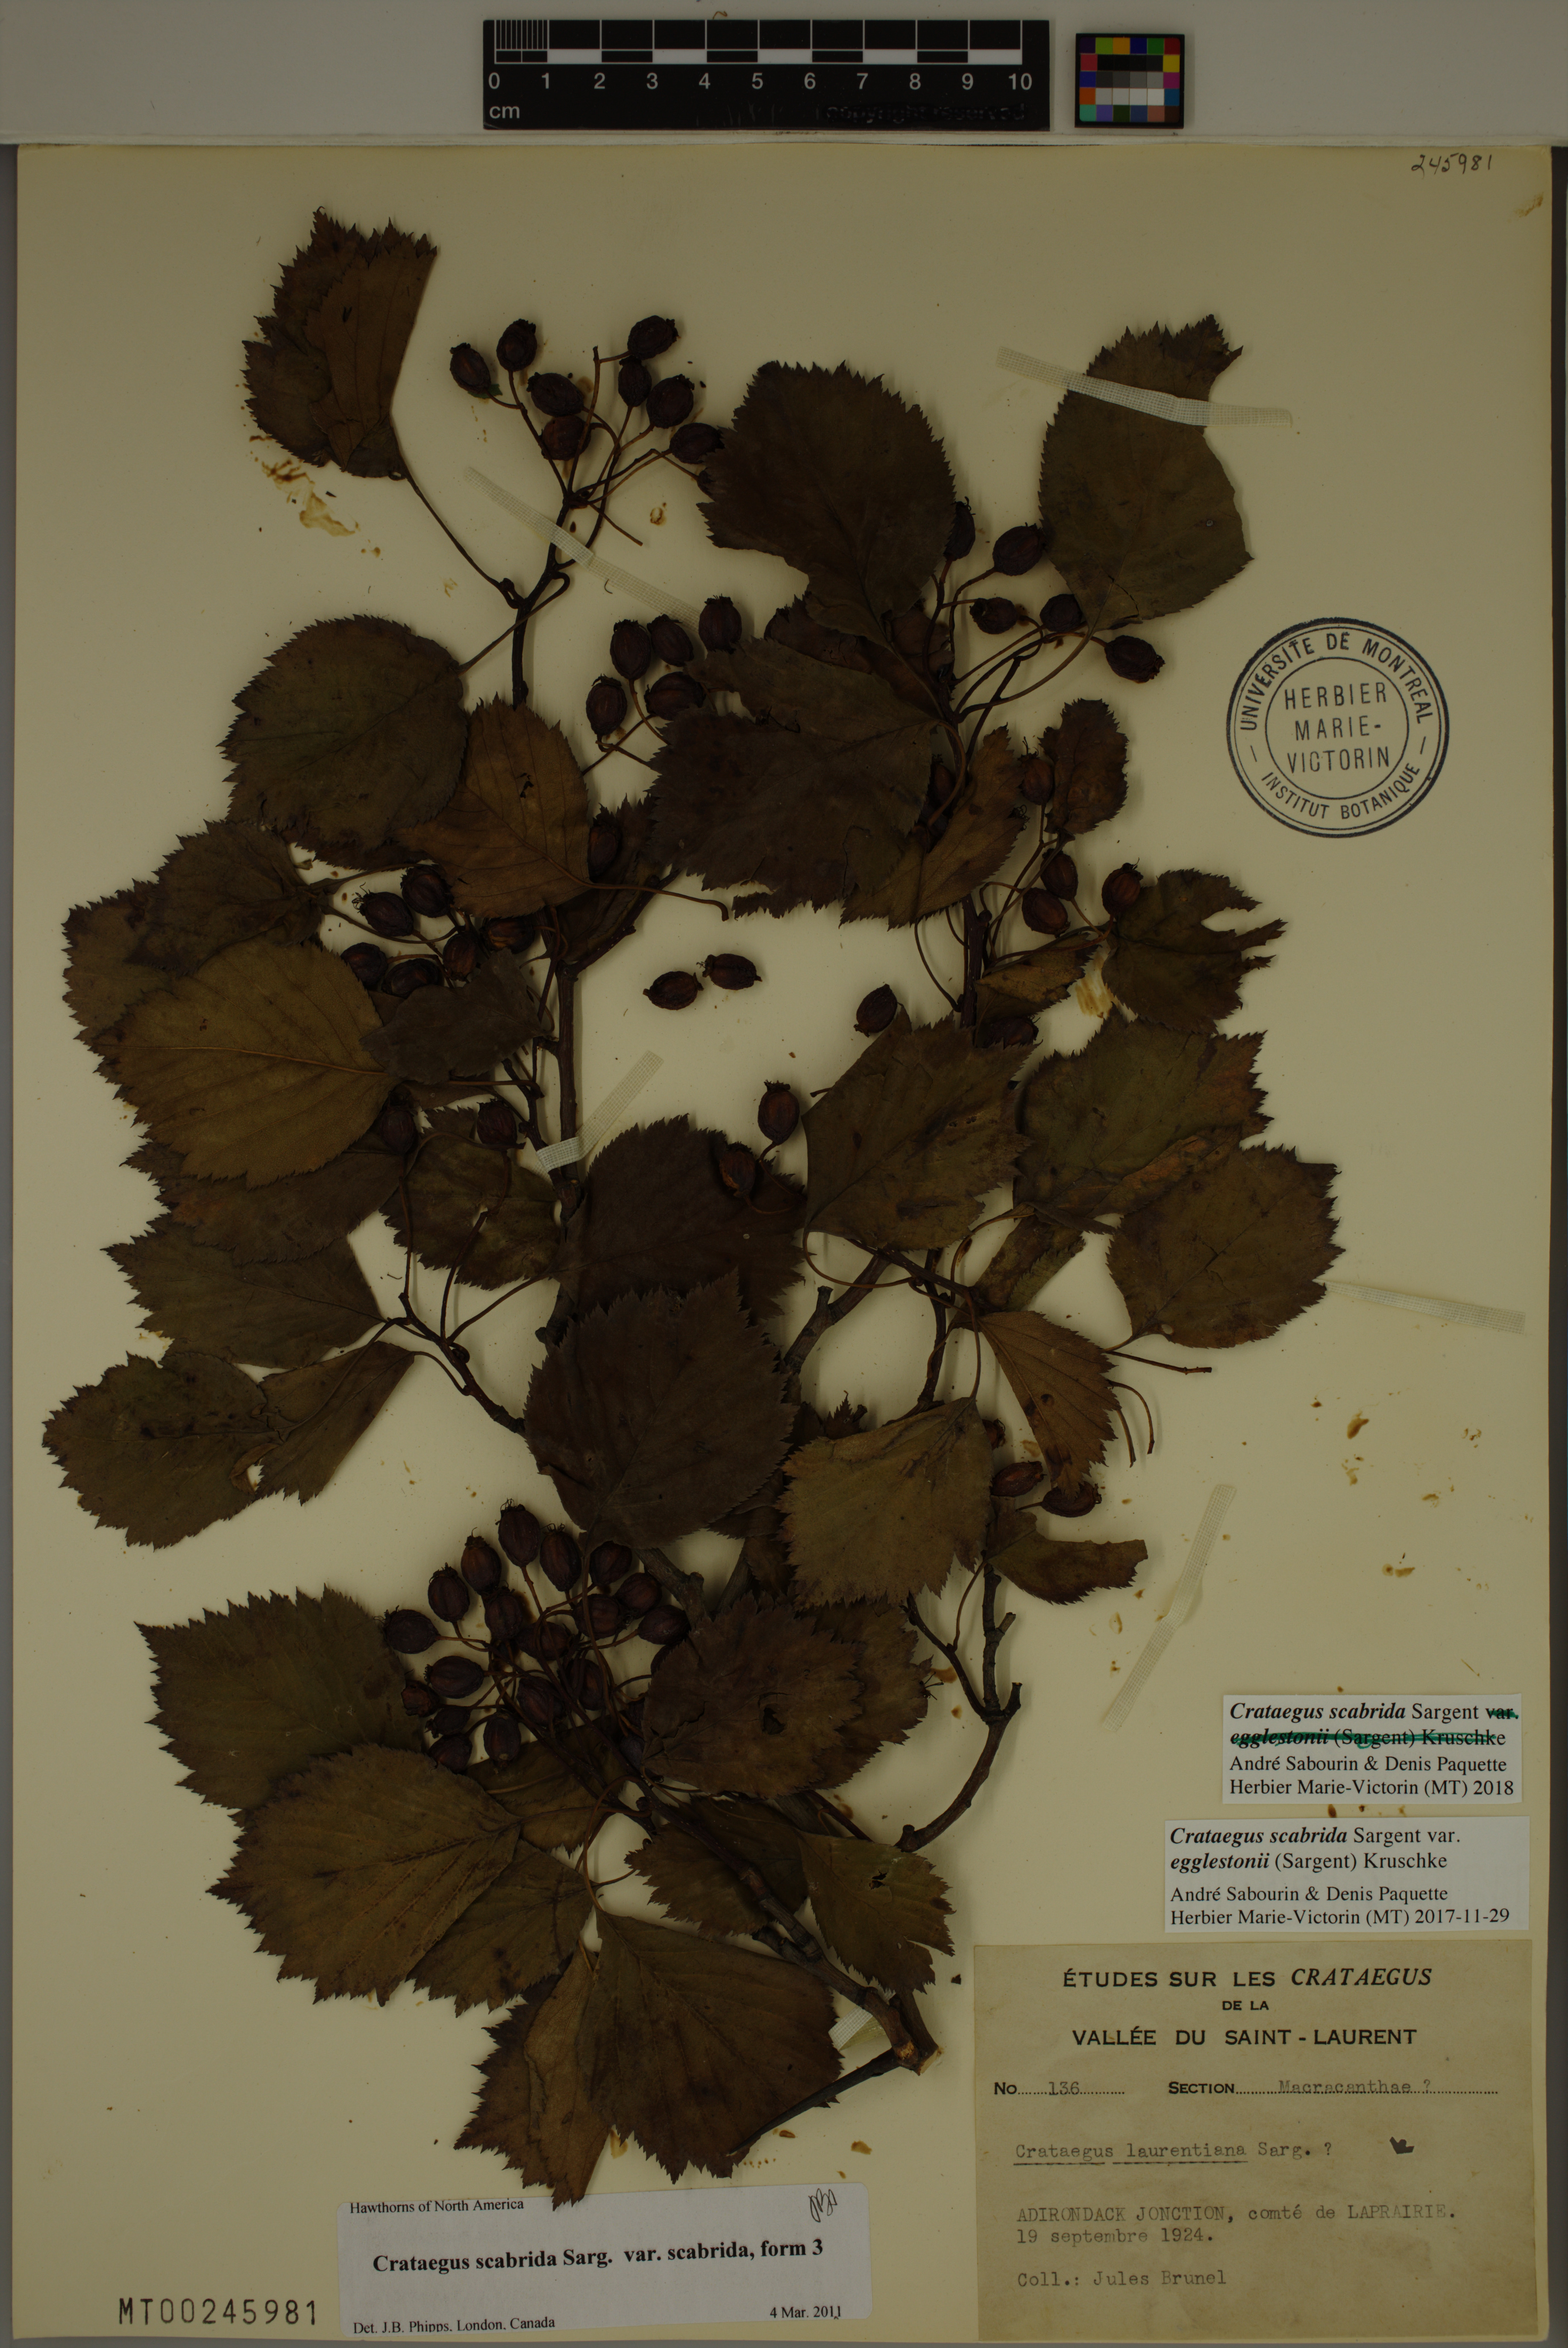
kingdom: Plantae
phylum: Tracheophyta
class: Magnoliopsida
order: Rosales
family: Rosaceae
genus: Crataegus
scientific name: Crataegus scabrida
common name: Rough hawthorn
